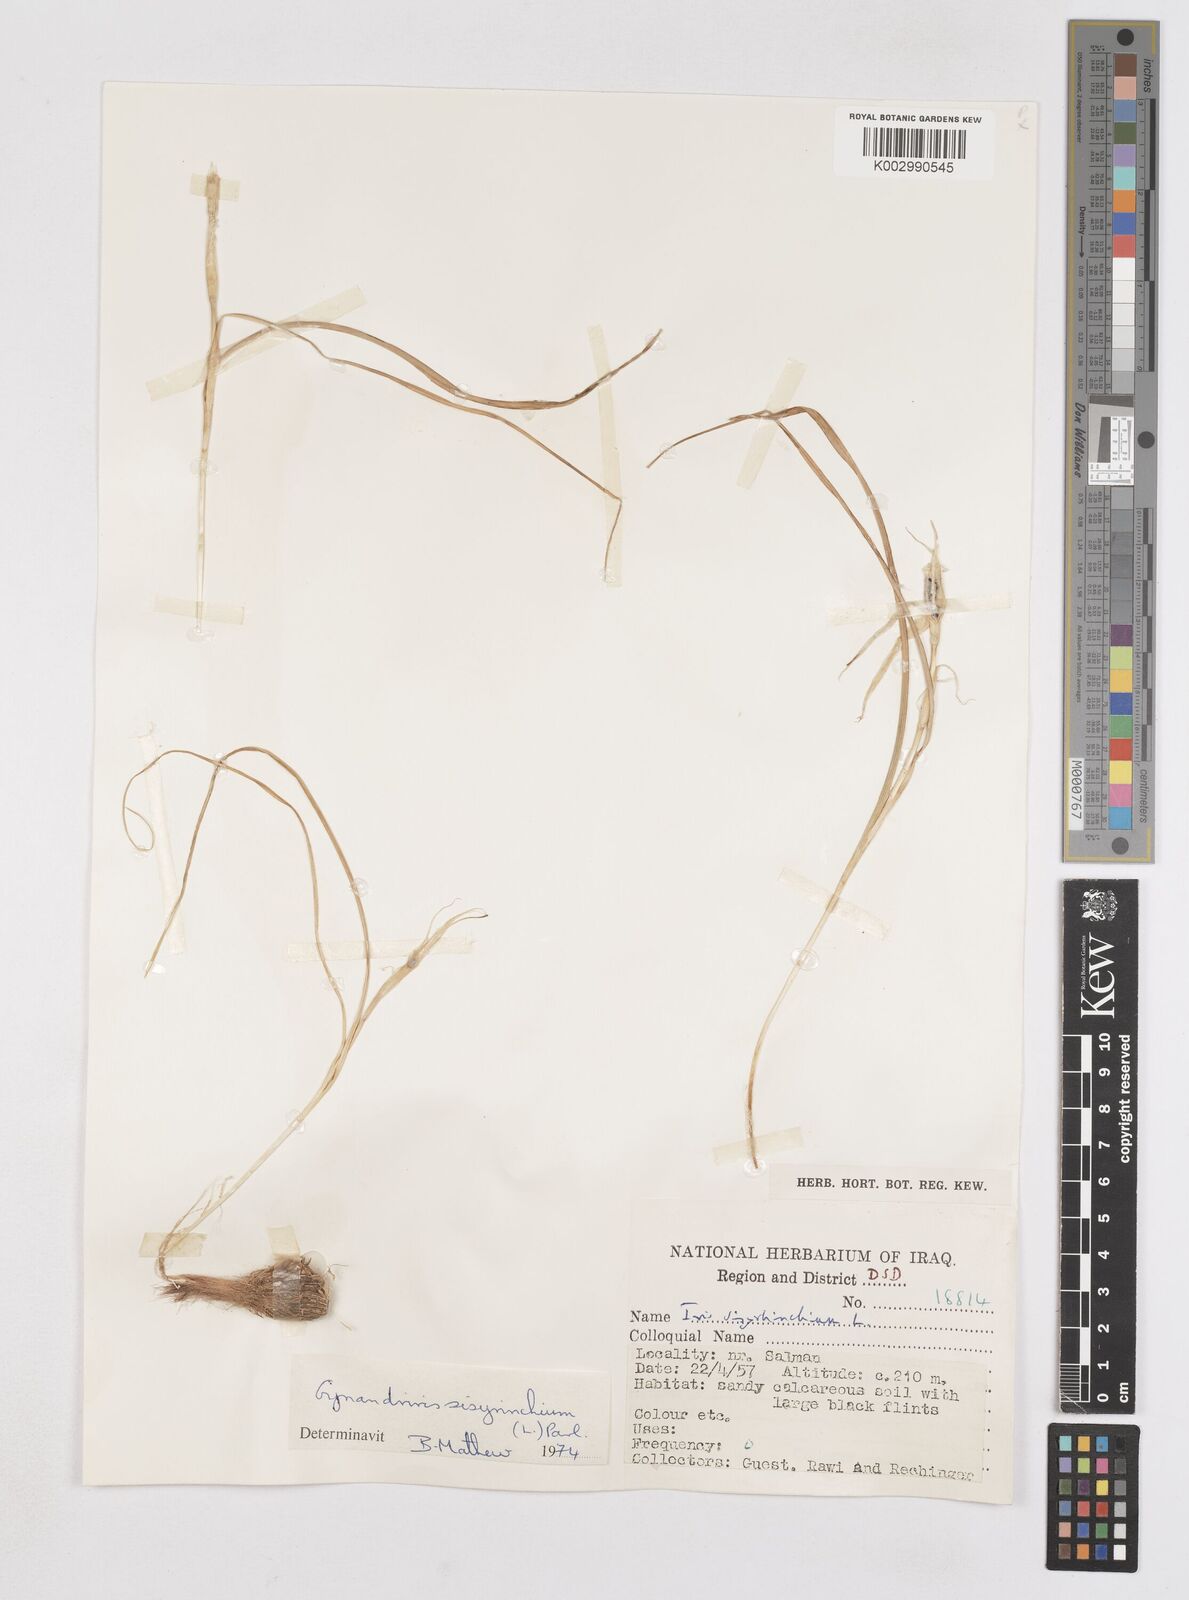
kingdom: Plantae
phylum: Tracheophyta
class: Liliopsida
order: Asparagales
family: Iridaceae
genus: Moraea
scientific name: Moraea sisyrinchium
